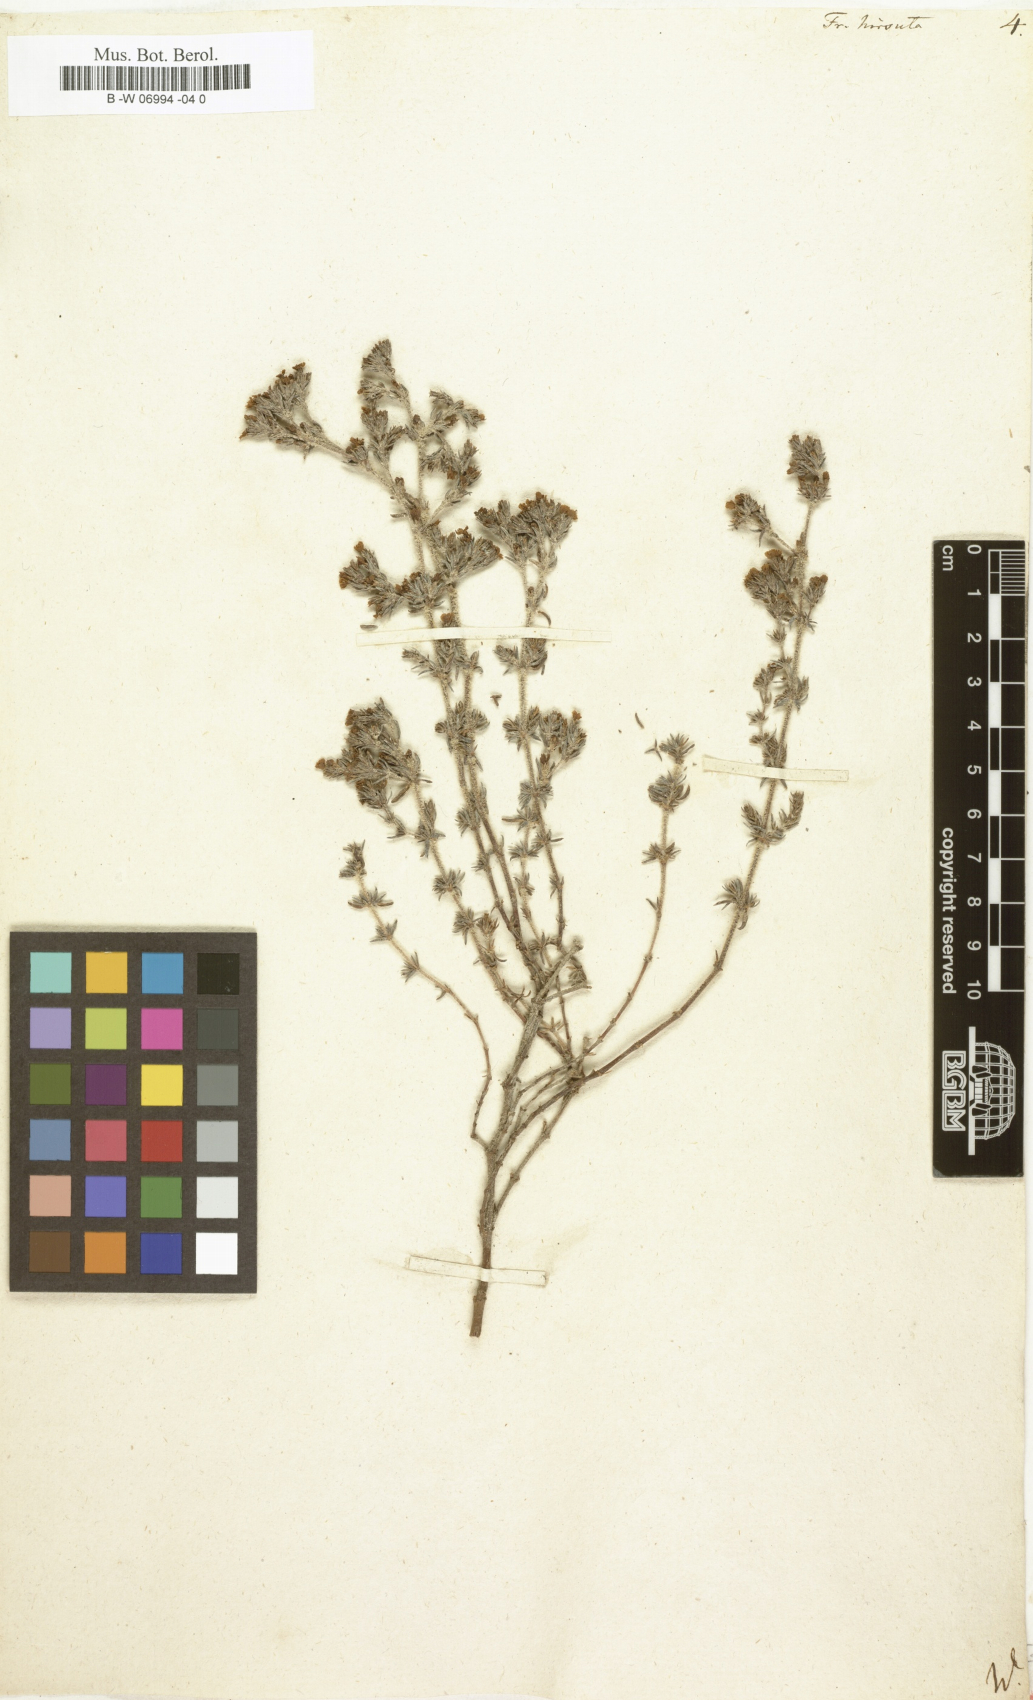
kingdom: Plantae
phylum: Tracheophyta
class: Magnoliopsida
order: Caryophyllales
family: Frankeniaceae
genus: Frankenia
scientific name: Frankenia hirsuta
